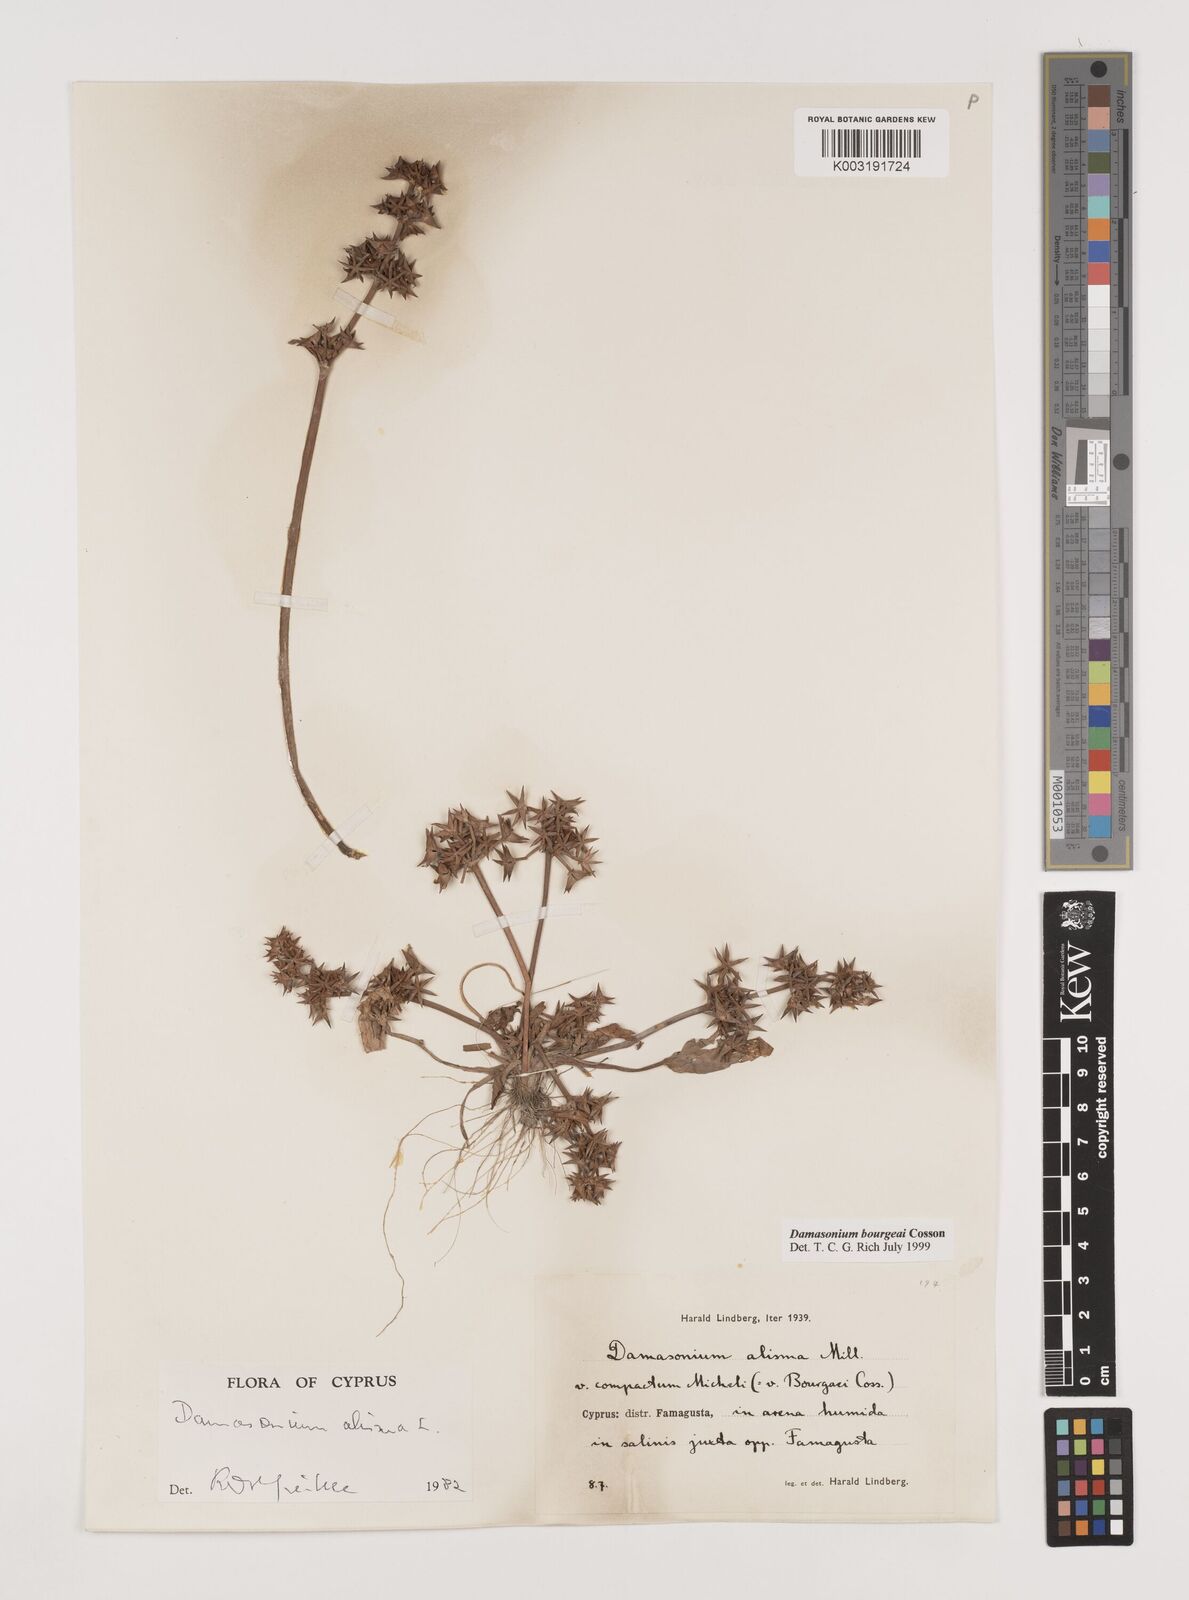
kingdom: Plantae
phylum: Tracheophyta
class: Liliopsida
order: Alismatales
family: Alismataceae
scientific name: Alismataceae
